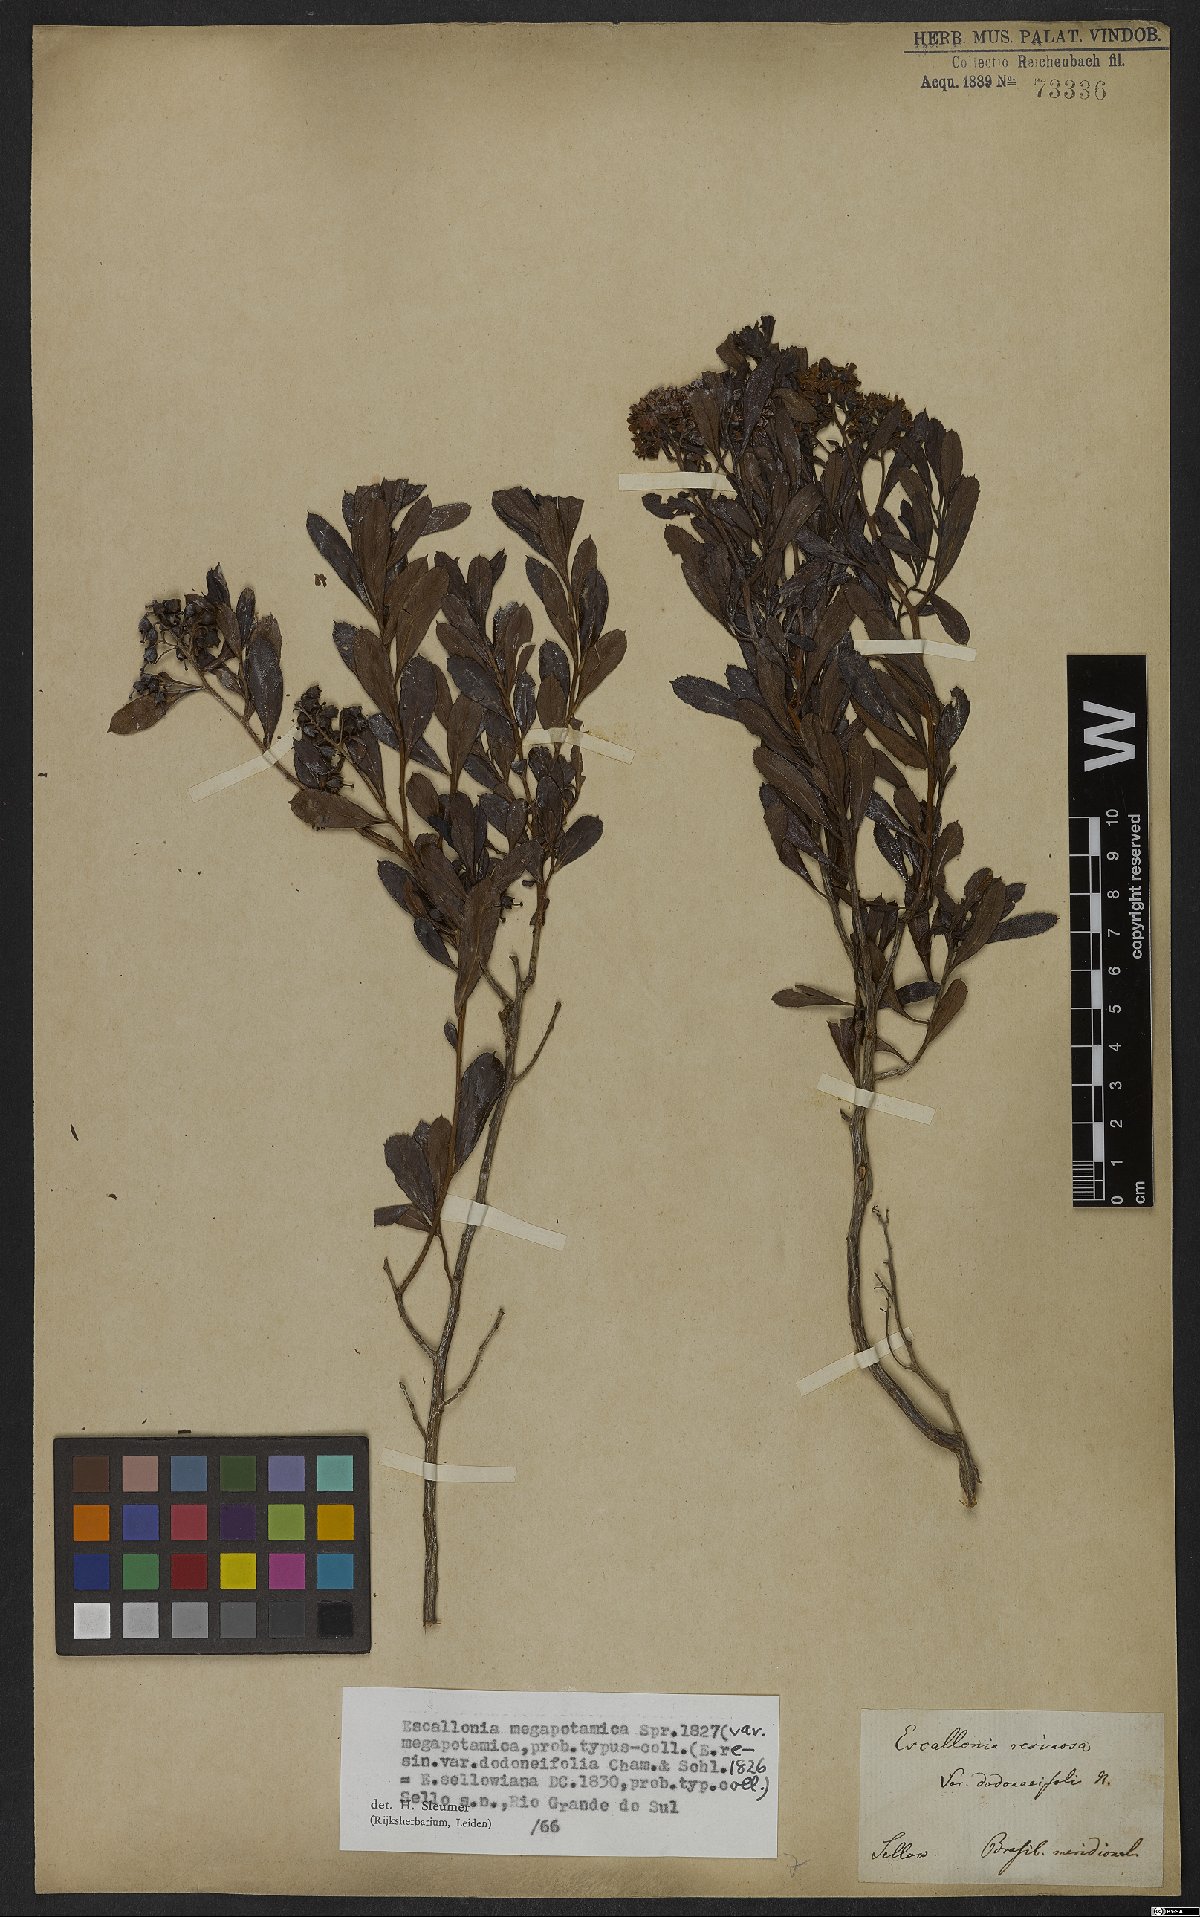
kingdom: Plantae
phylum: Tracheophyta
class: Magnoliopsida
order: Escalloniales
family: Escalloniaceae
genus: Escallonia
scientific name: Escallonia megapotamica
